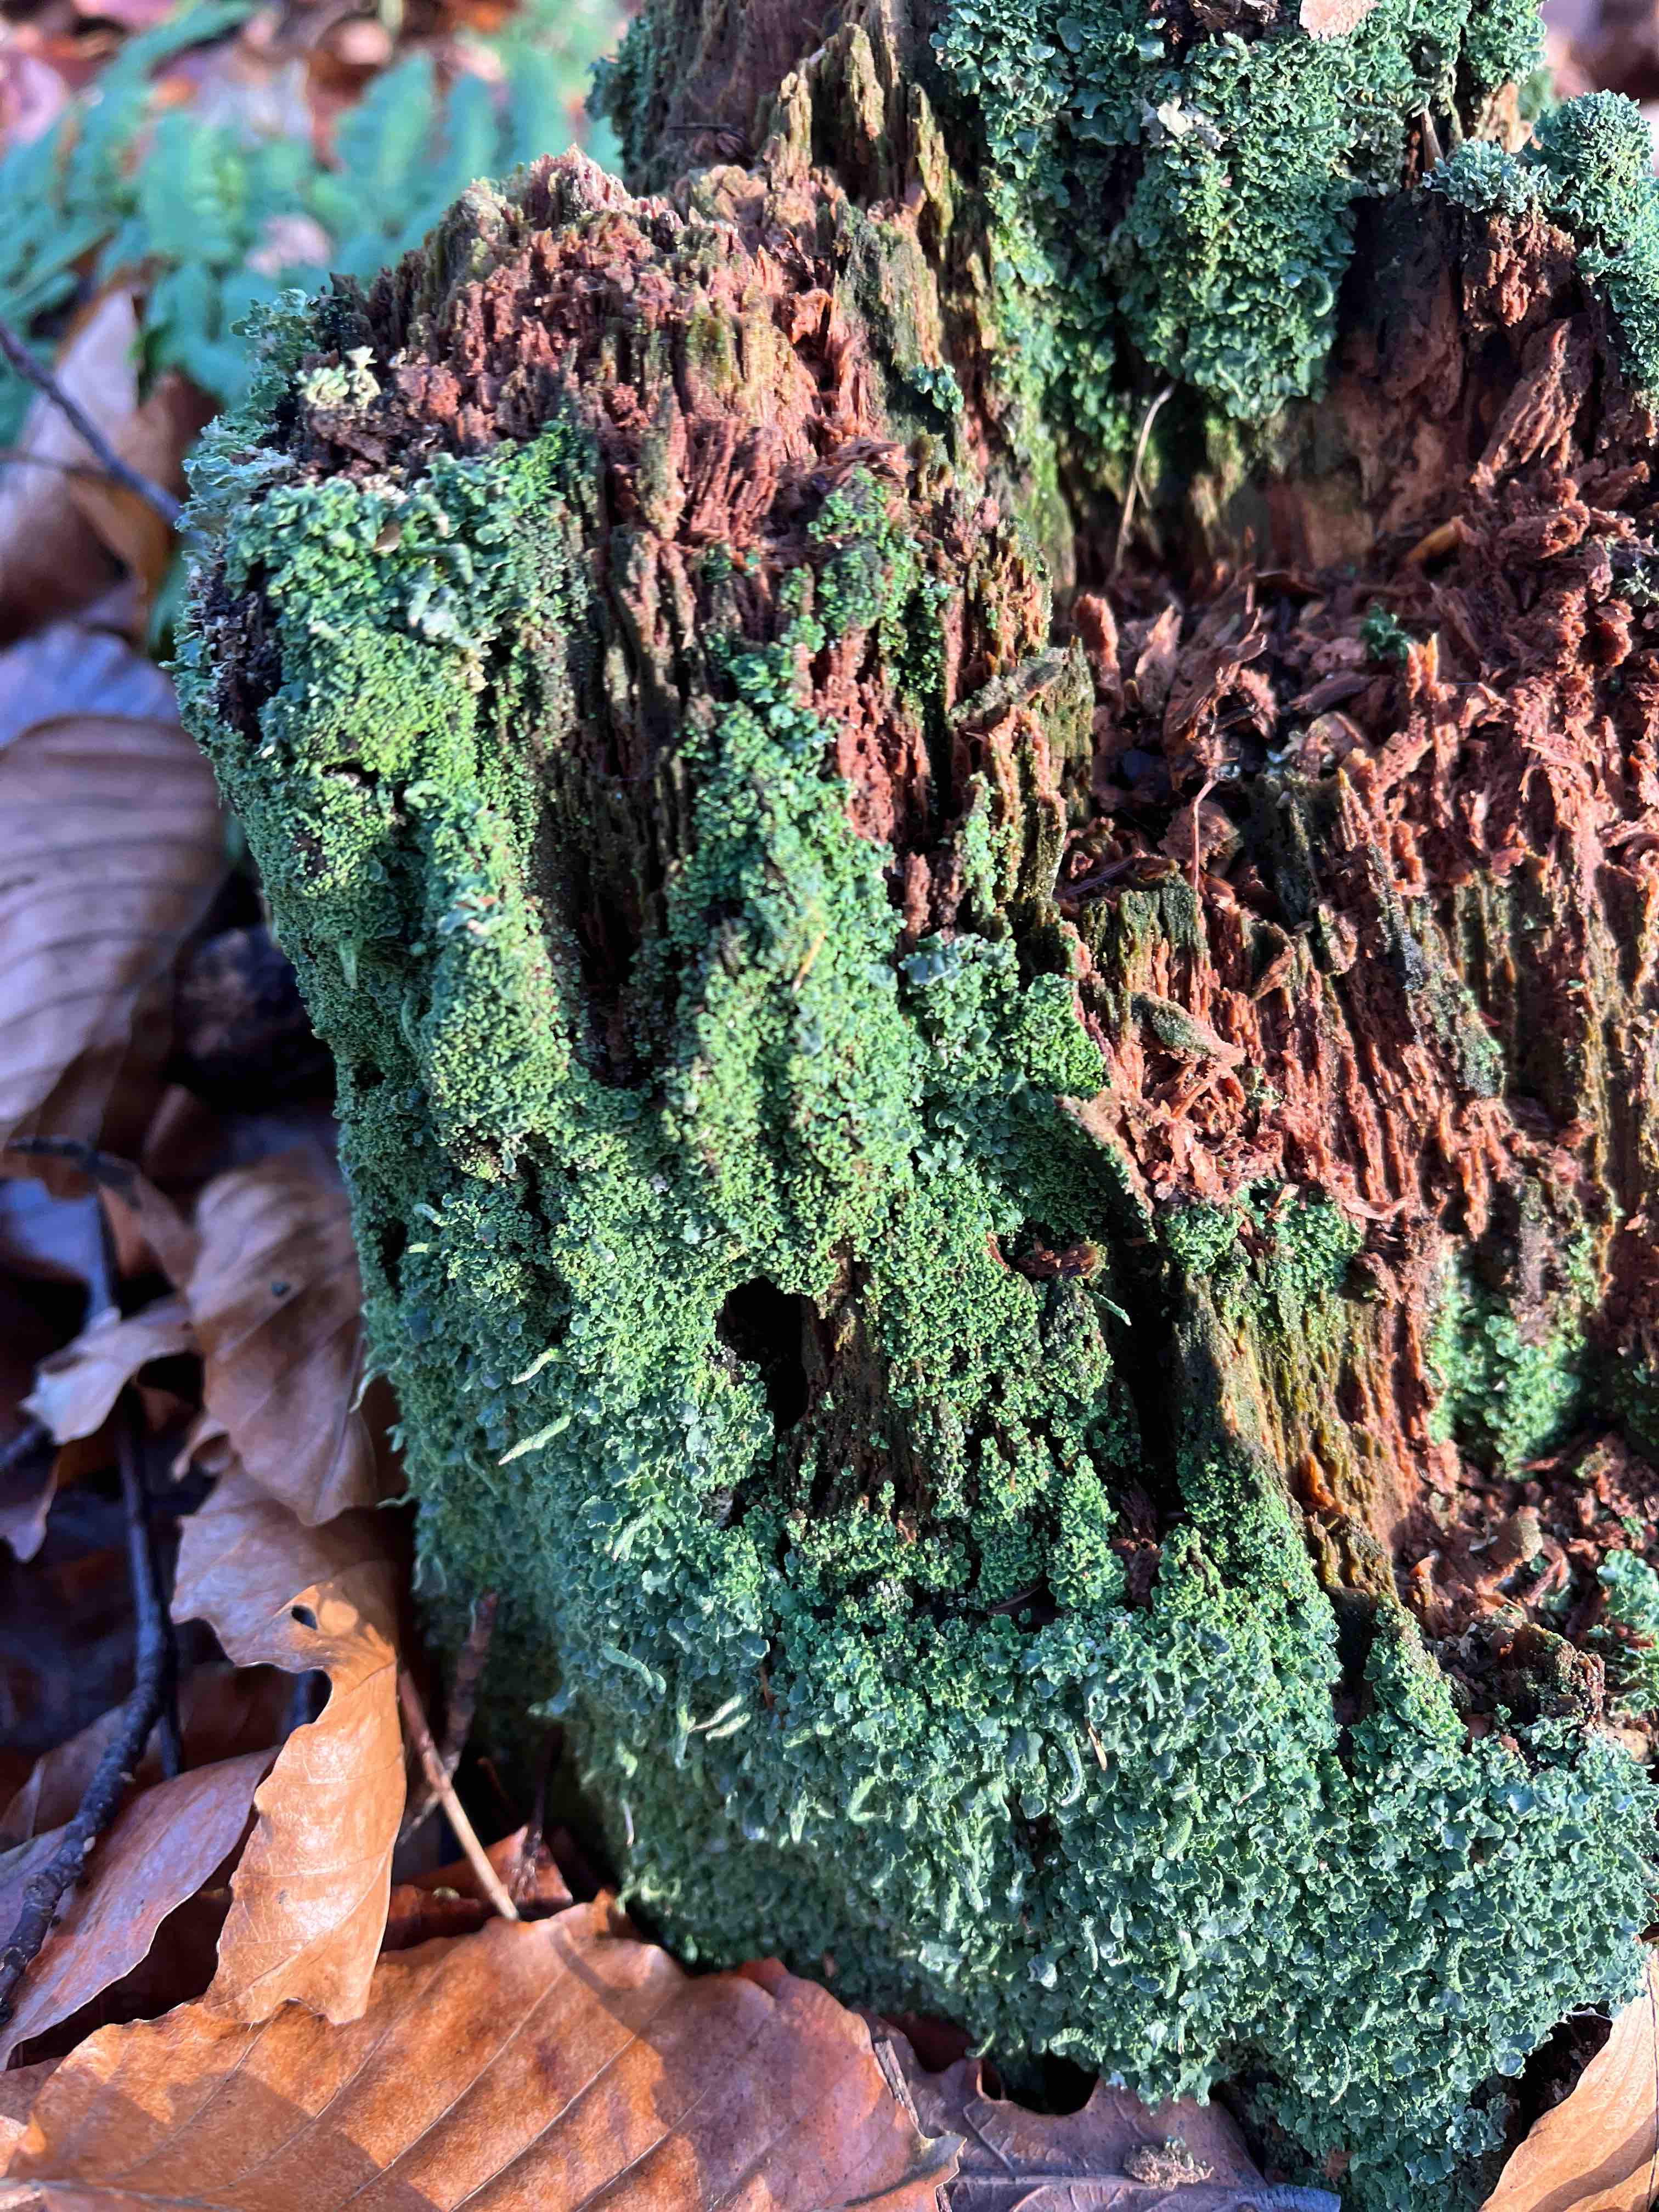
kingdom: Fungi
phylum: Ascomycota
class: Lecanoromycetes
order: Lecanorales
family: Cladoniaceae
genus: Cladonia
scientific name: Cladonia coniocraea
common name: træfods-bægerlav
